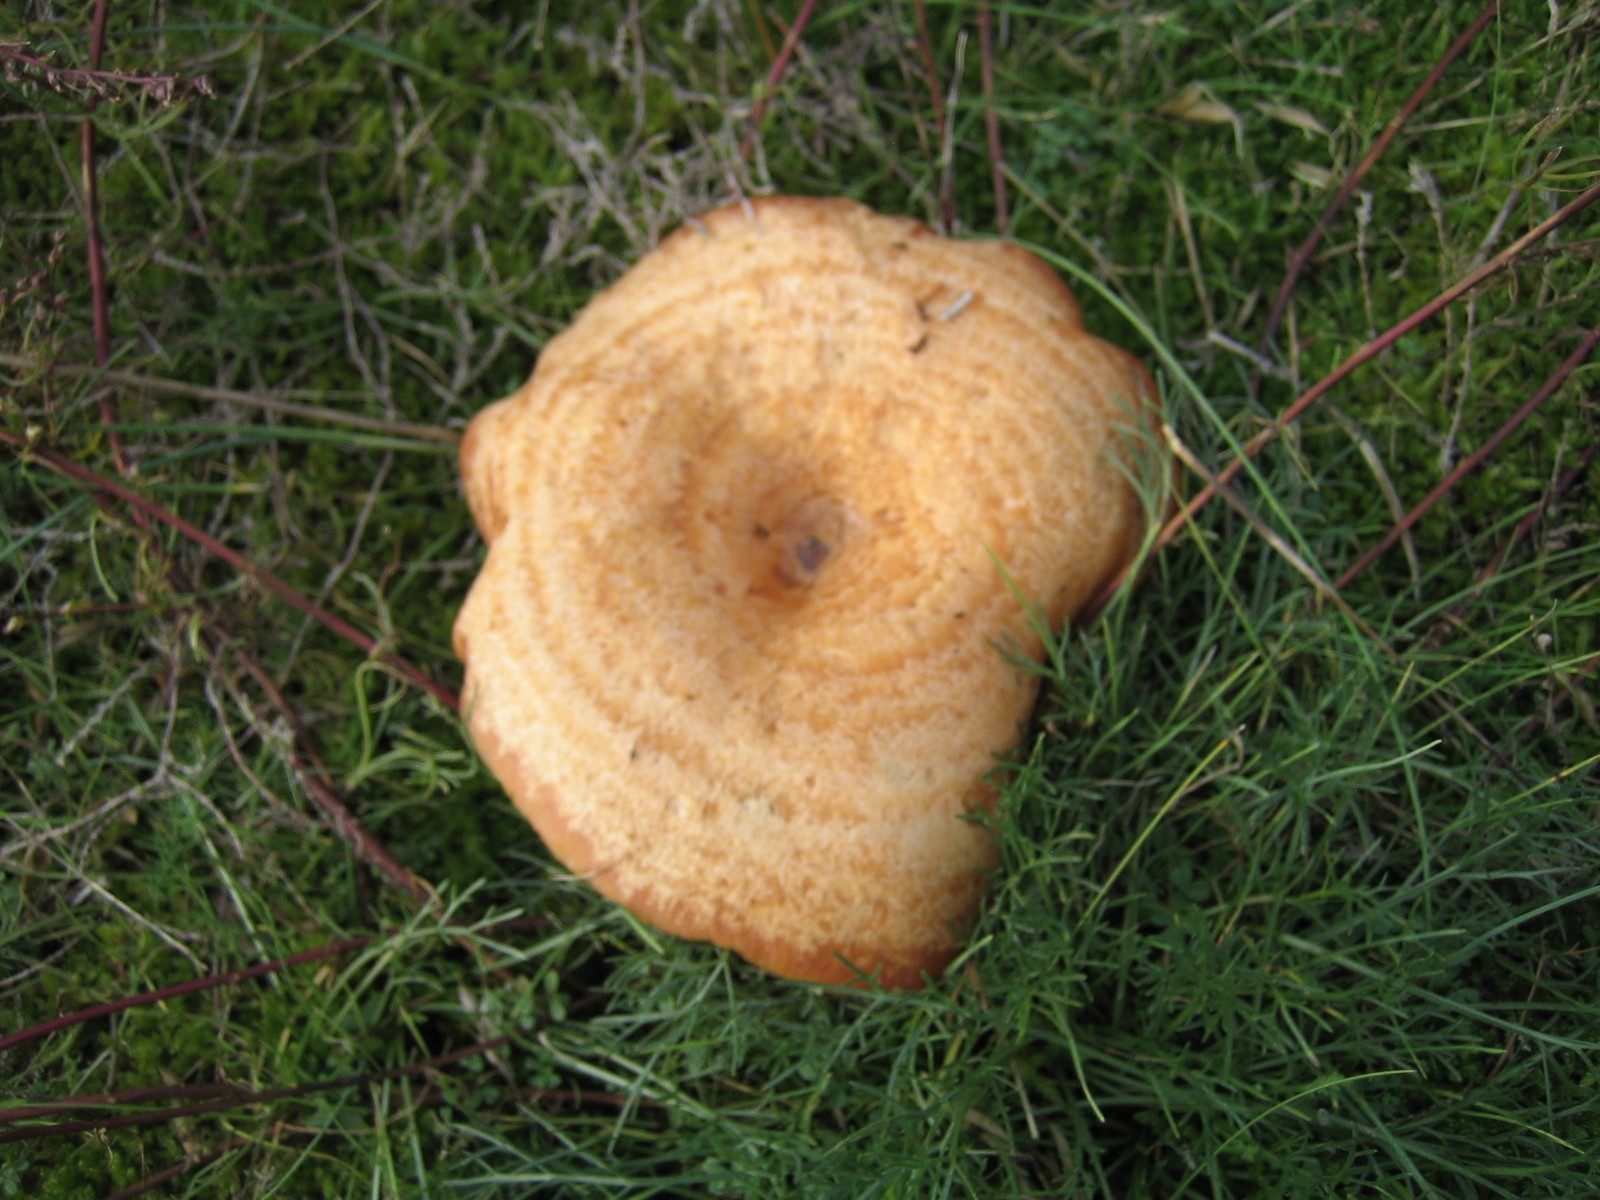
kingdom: Fungi
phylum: Basidiomycota
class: Agaricomycetes
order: Russulales
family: Russulaceae
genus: Lactarius
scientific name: Lactarius deliciosus
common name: velsmagende mælkehat
